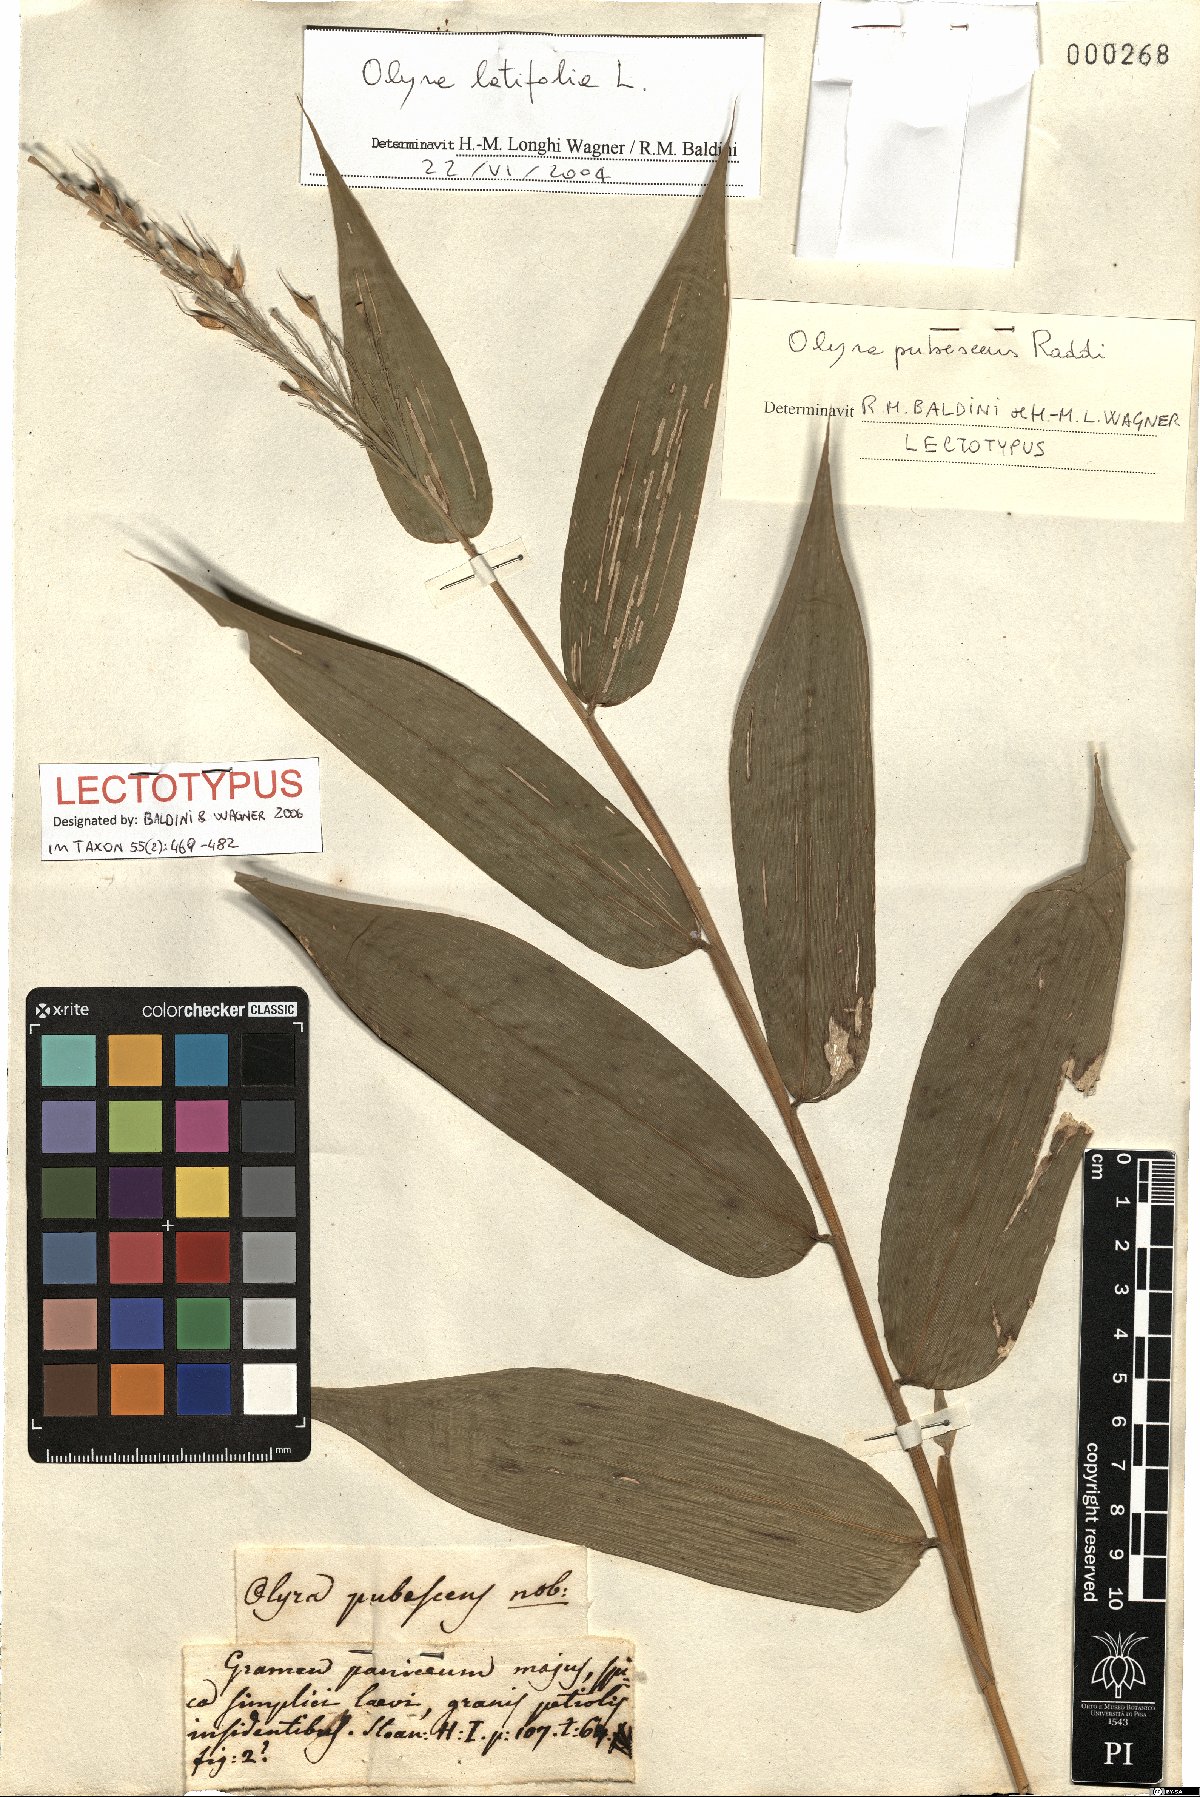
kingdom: Plantae
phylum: Tracheophyta
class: Liliopsida
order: Poales
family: Poaceae
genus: Olyra
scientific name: Olyra latifolia
